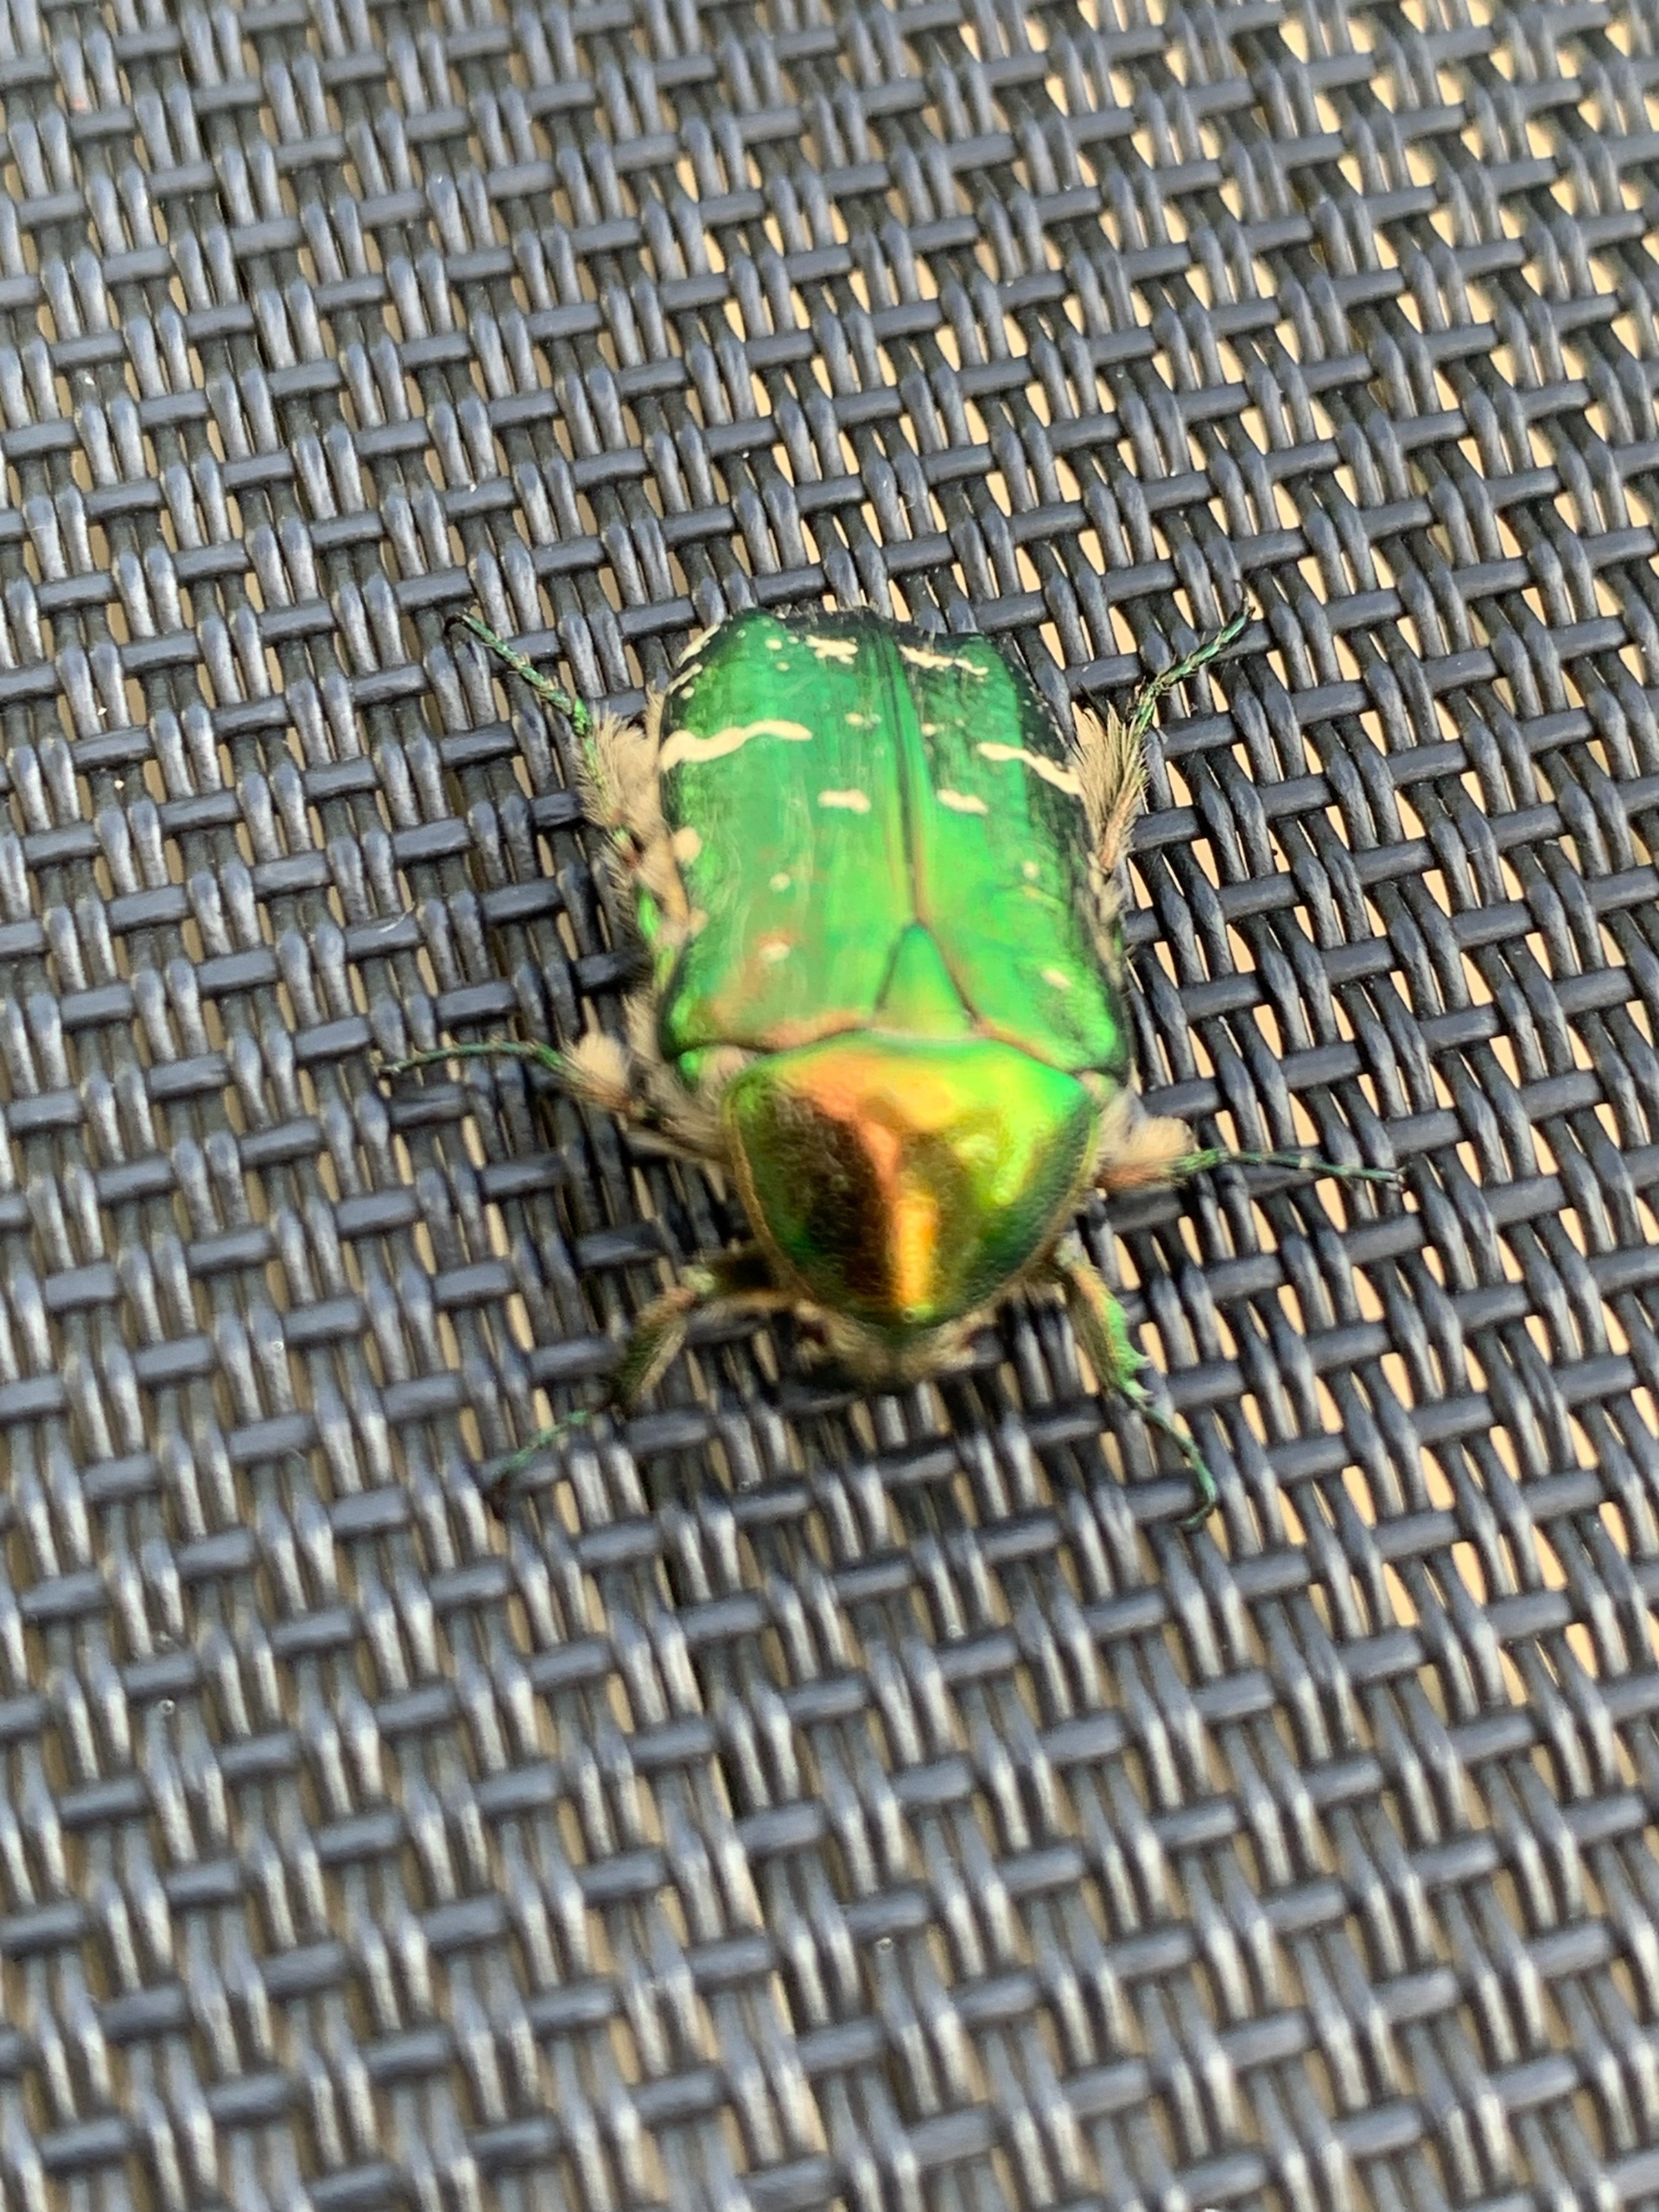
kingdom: Animalia
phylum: Arthropoda
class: Insecta
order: Coleoptera
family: Scarabaeidae
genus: Cetonia
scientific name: Cetonia aurata
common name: Grøn guldbasse
